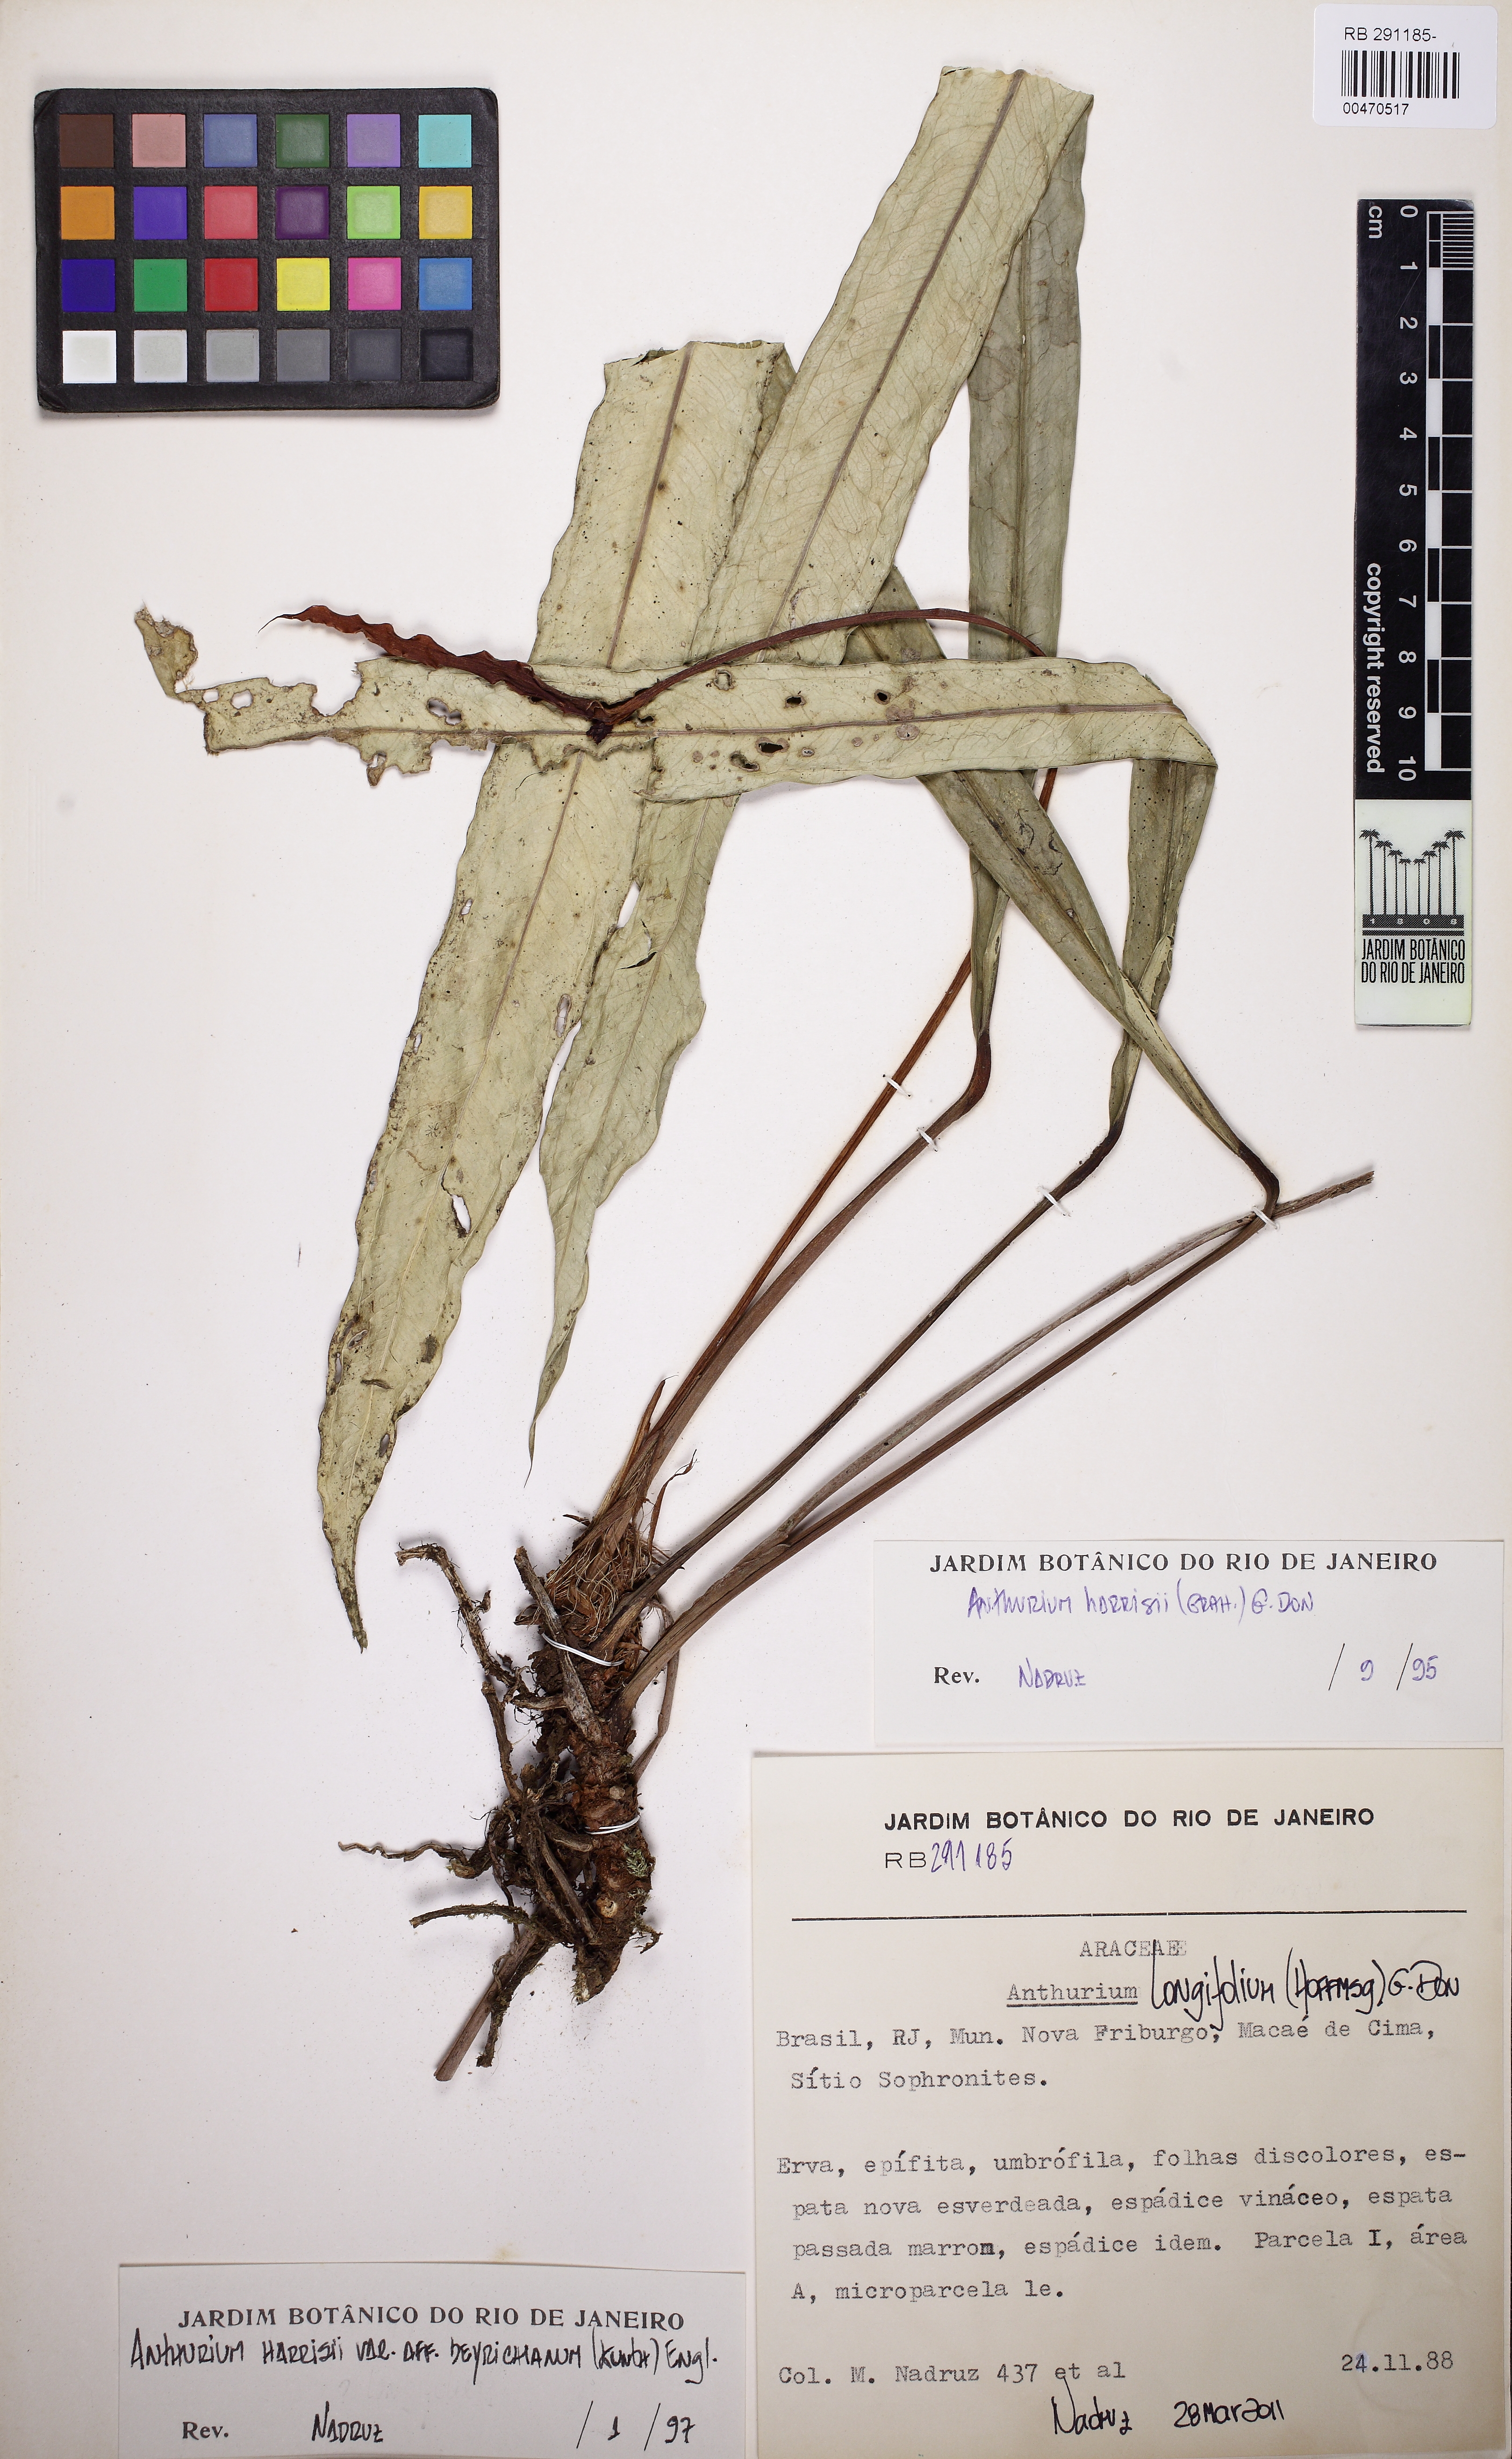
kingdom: Plantae
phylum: Tracheophyta
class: Liliopsida
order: Alismatales
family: Araceae
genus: Anthurium
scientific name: Anthurium longifolium
